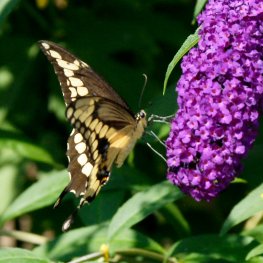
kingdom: Animalia
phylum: Arthropoda
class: Insecta
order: Lepidoptera
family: Papilionidae
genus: Papilio
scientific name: Papilio cresphontes
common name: Eastern Giant Swallowtail
